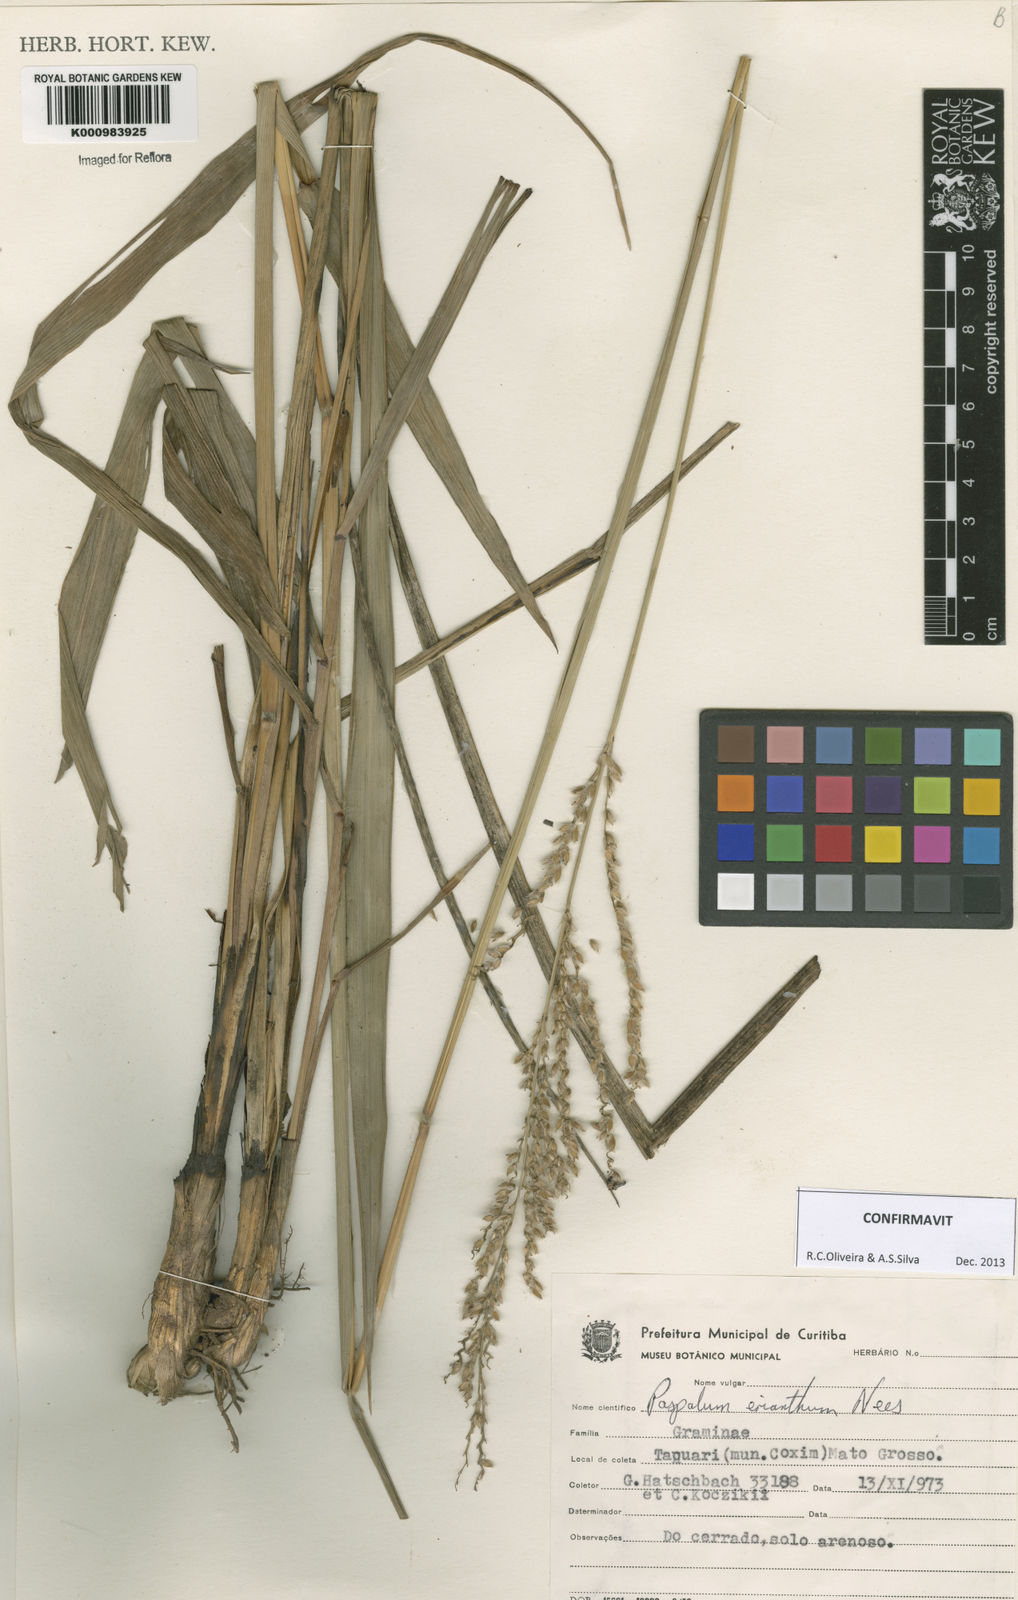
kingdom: Plantae
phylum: Tracheophyta
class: Liliopsida
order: Poales
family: Poaceae
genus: Paspalum
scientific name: Paspalum erianthum
